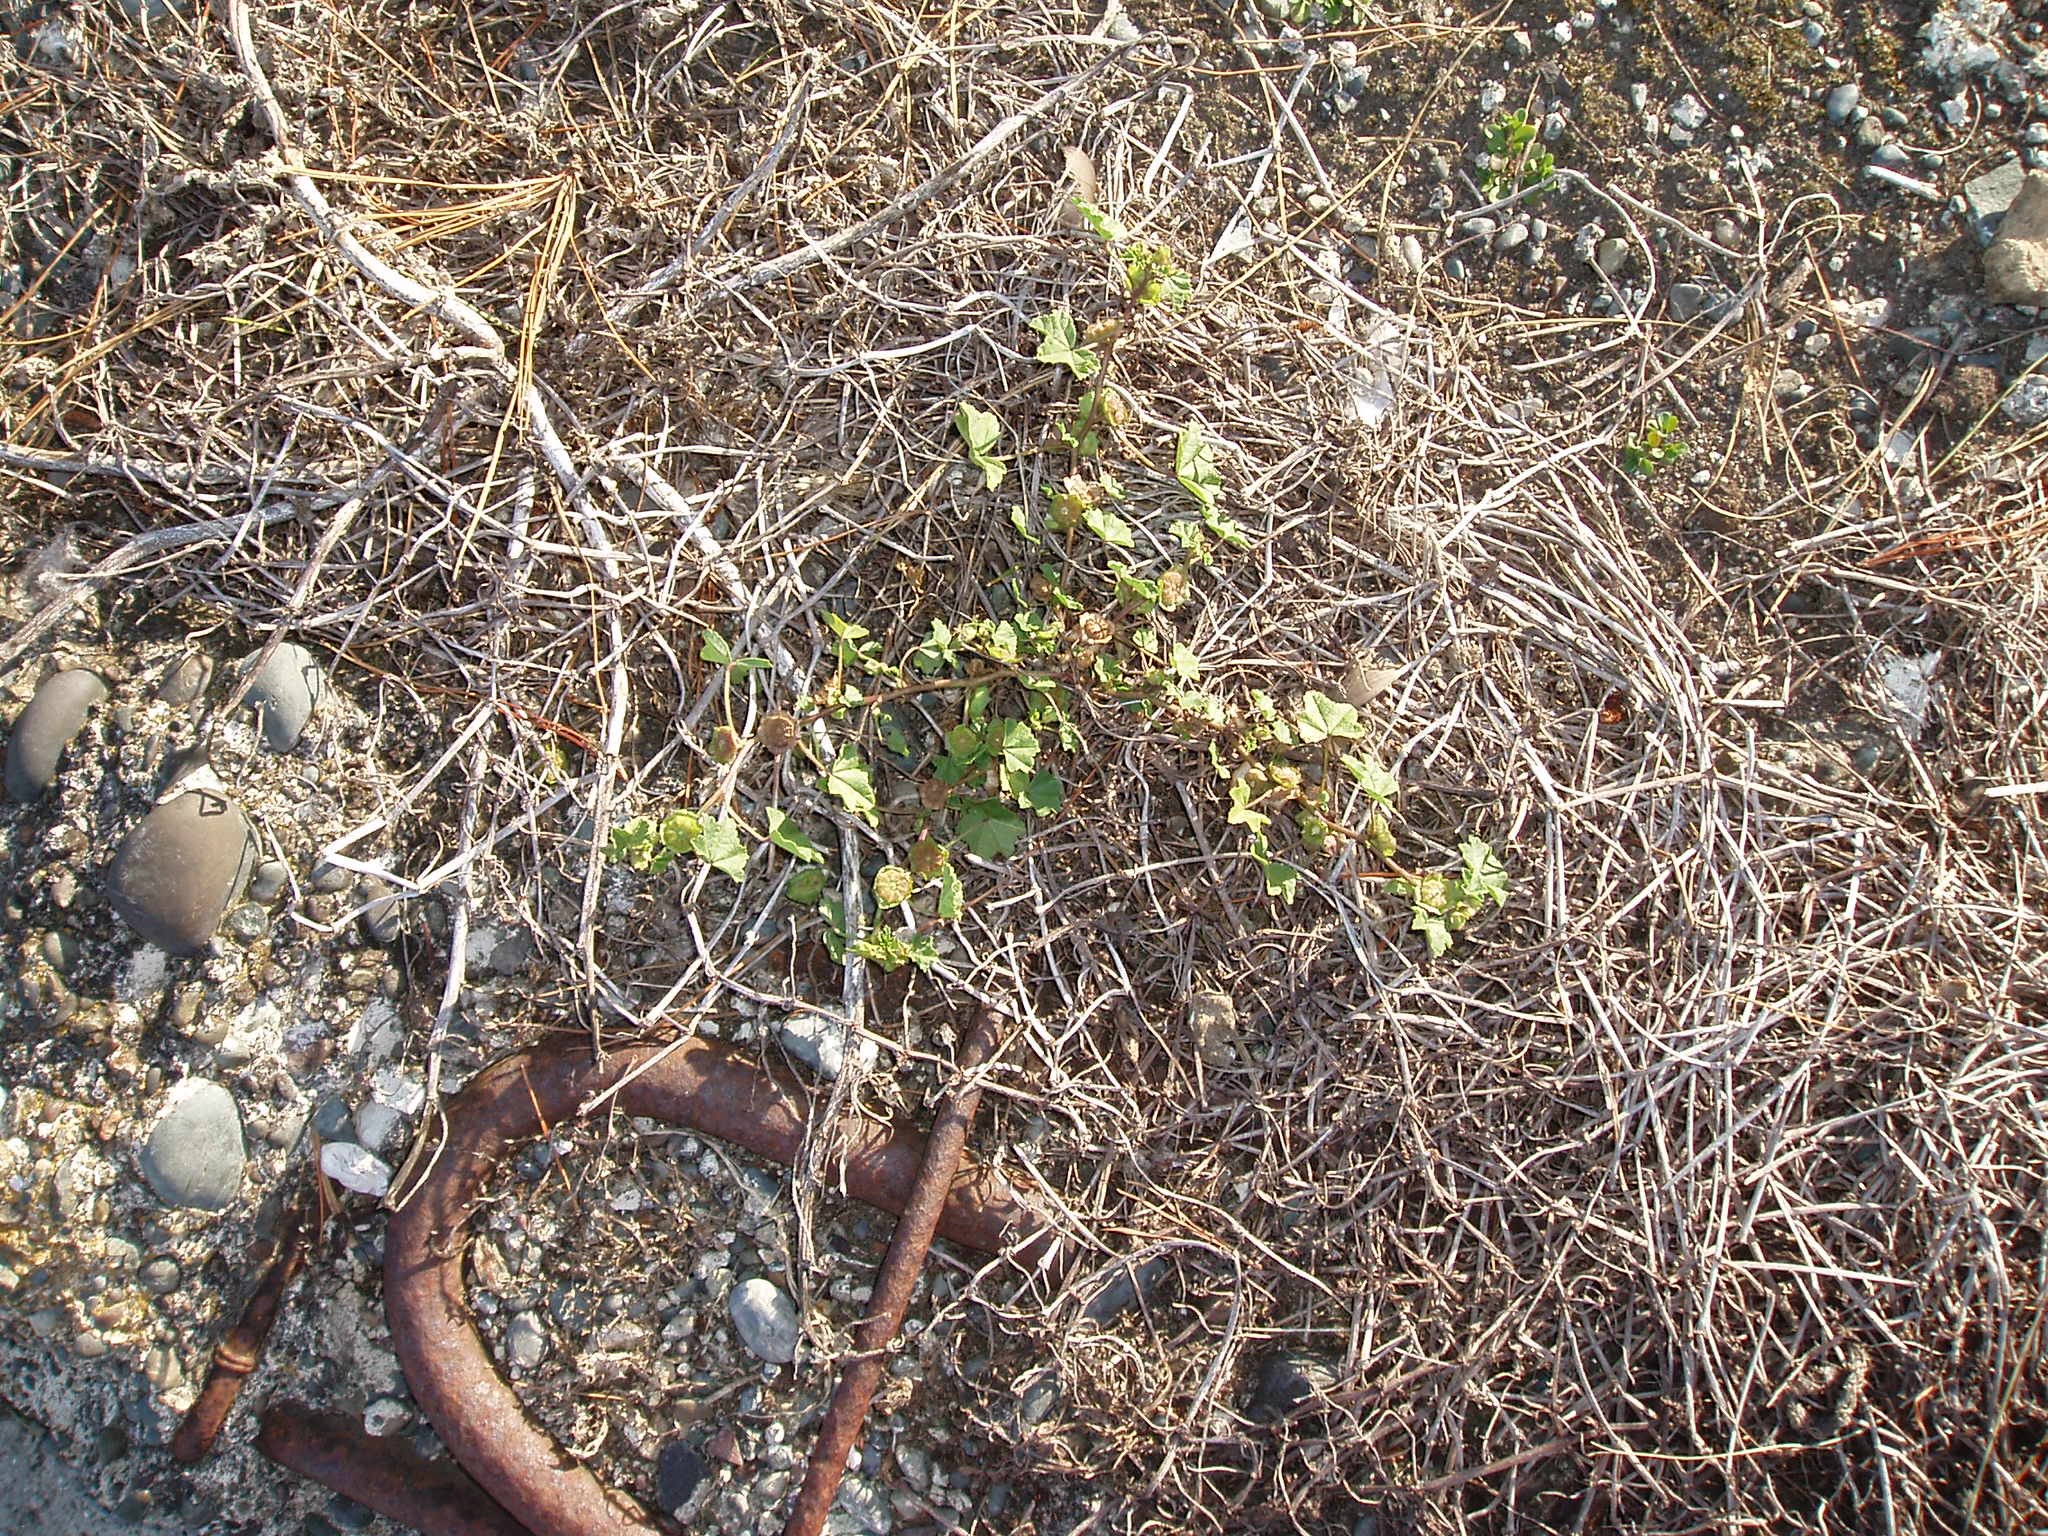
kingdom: Plantae
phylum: Tracheophyta
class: Magnoliopsida
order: Malvales
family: Malvaceae
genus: Malva
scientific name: Malva parviflora
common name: Least mallow
